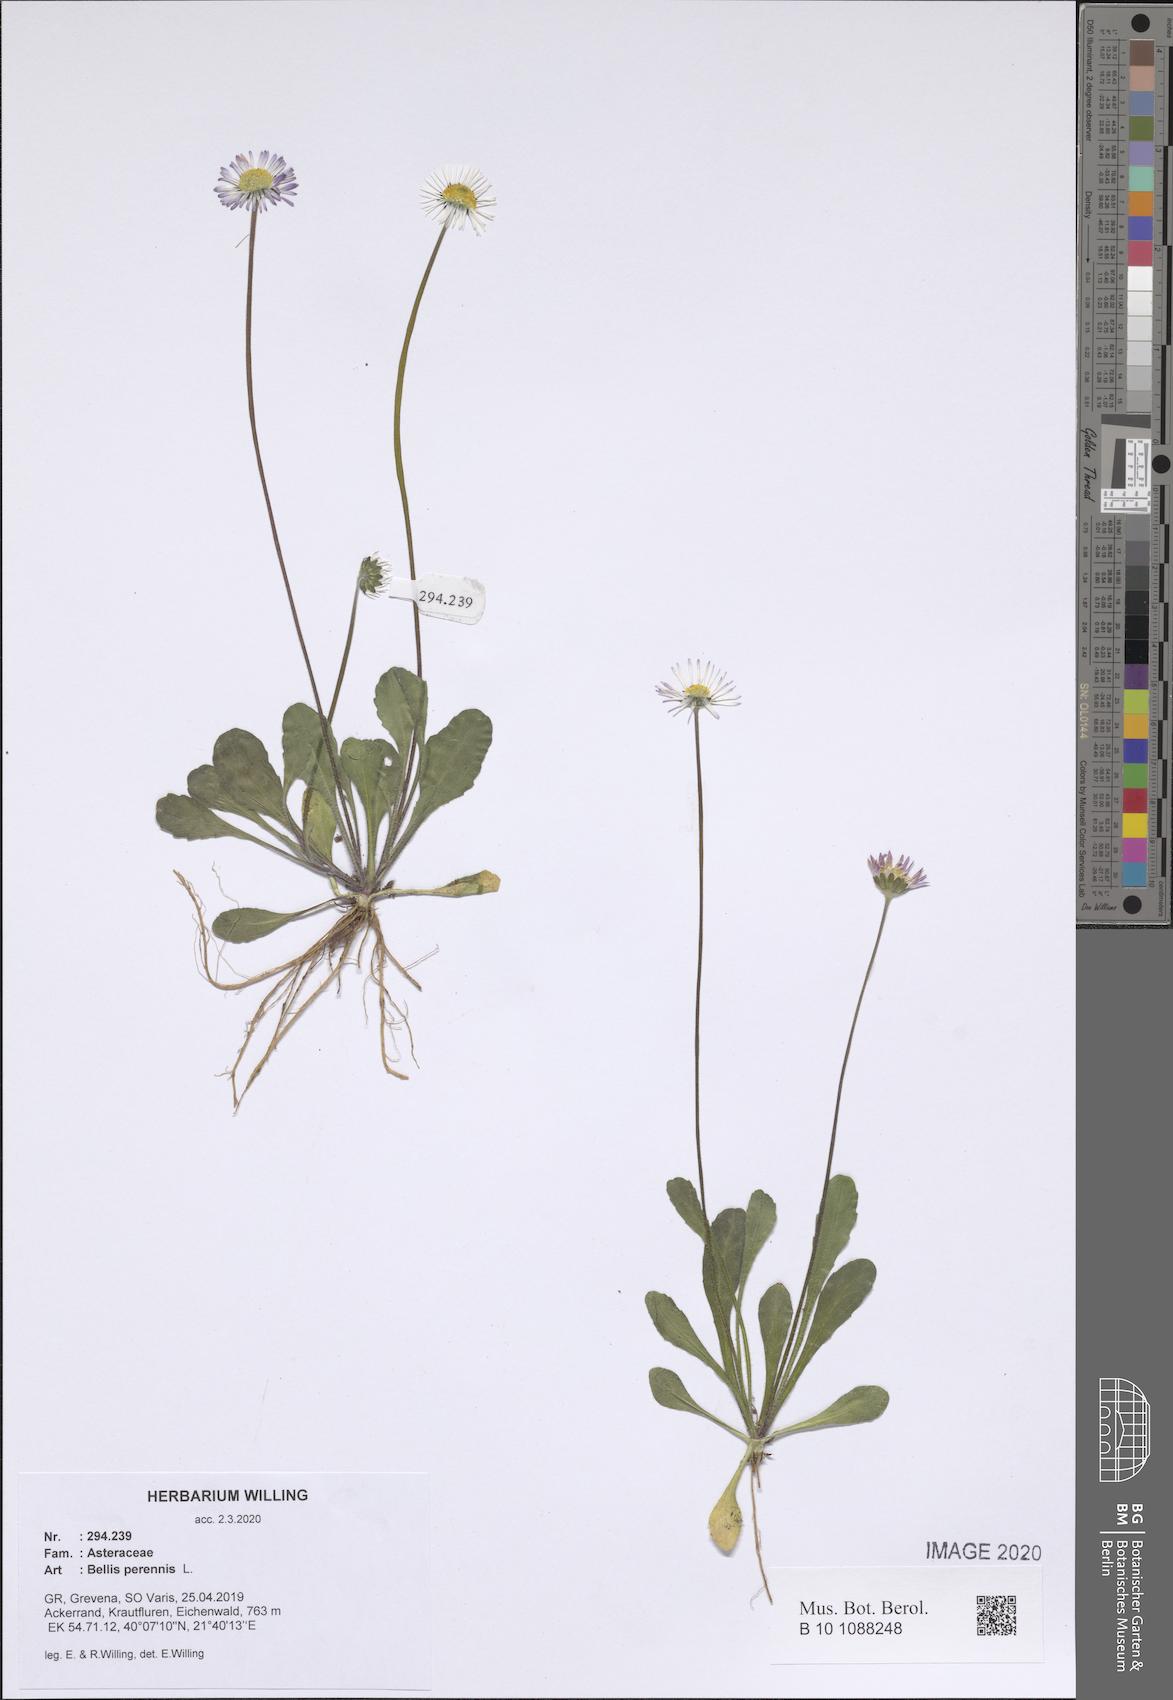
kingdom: Plantae
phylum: Tracheophyta
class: Magnoliopsida
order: Asterales
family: Asteraceae
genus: Bellis
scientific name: Bellis perennis
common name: Lawndaisy
